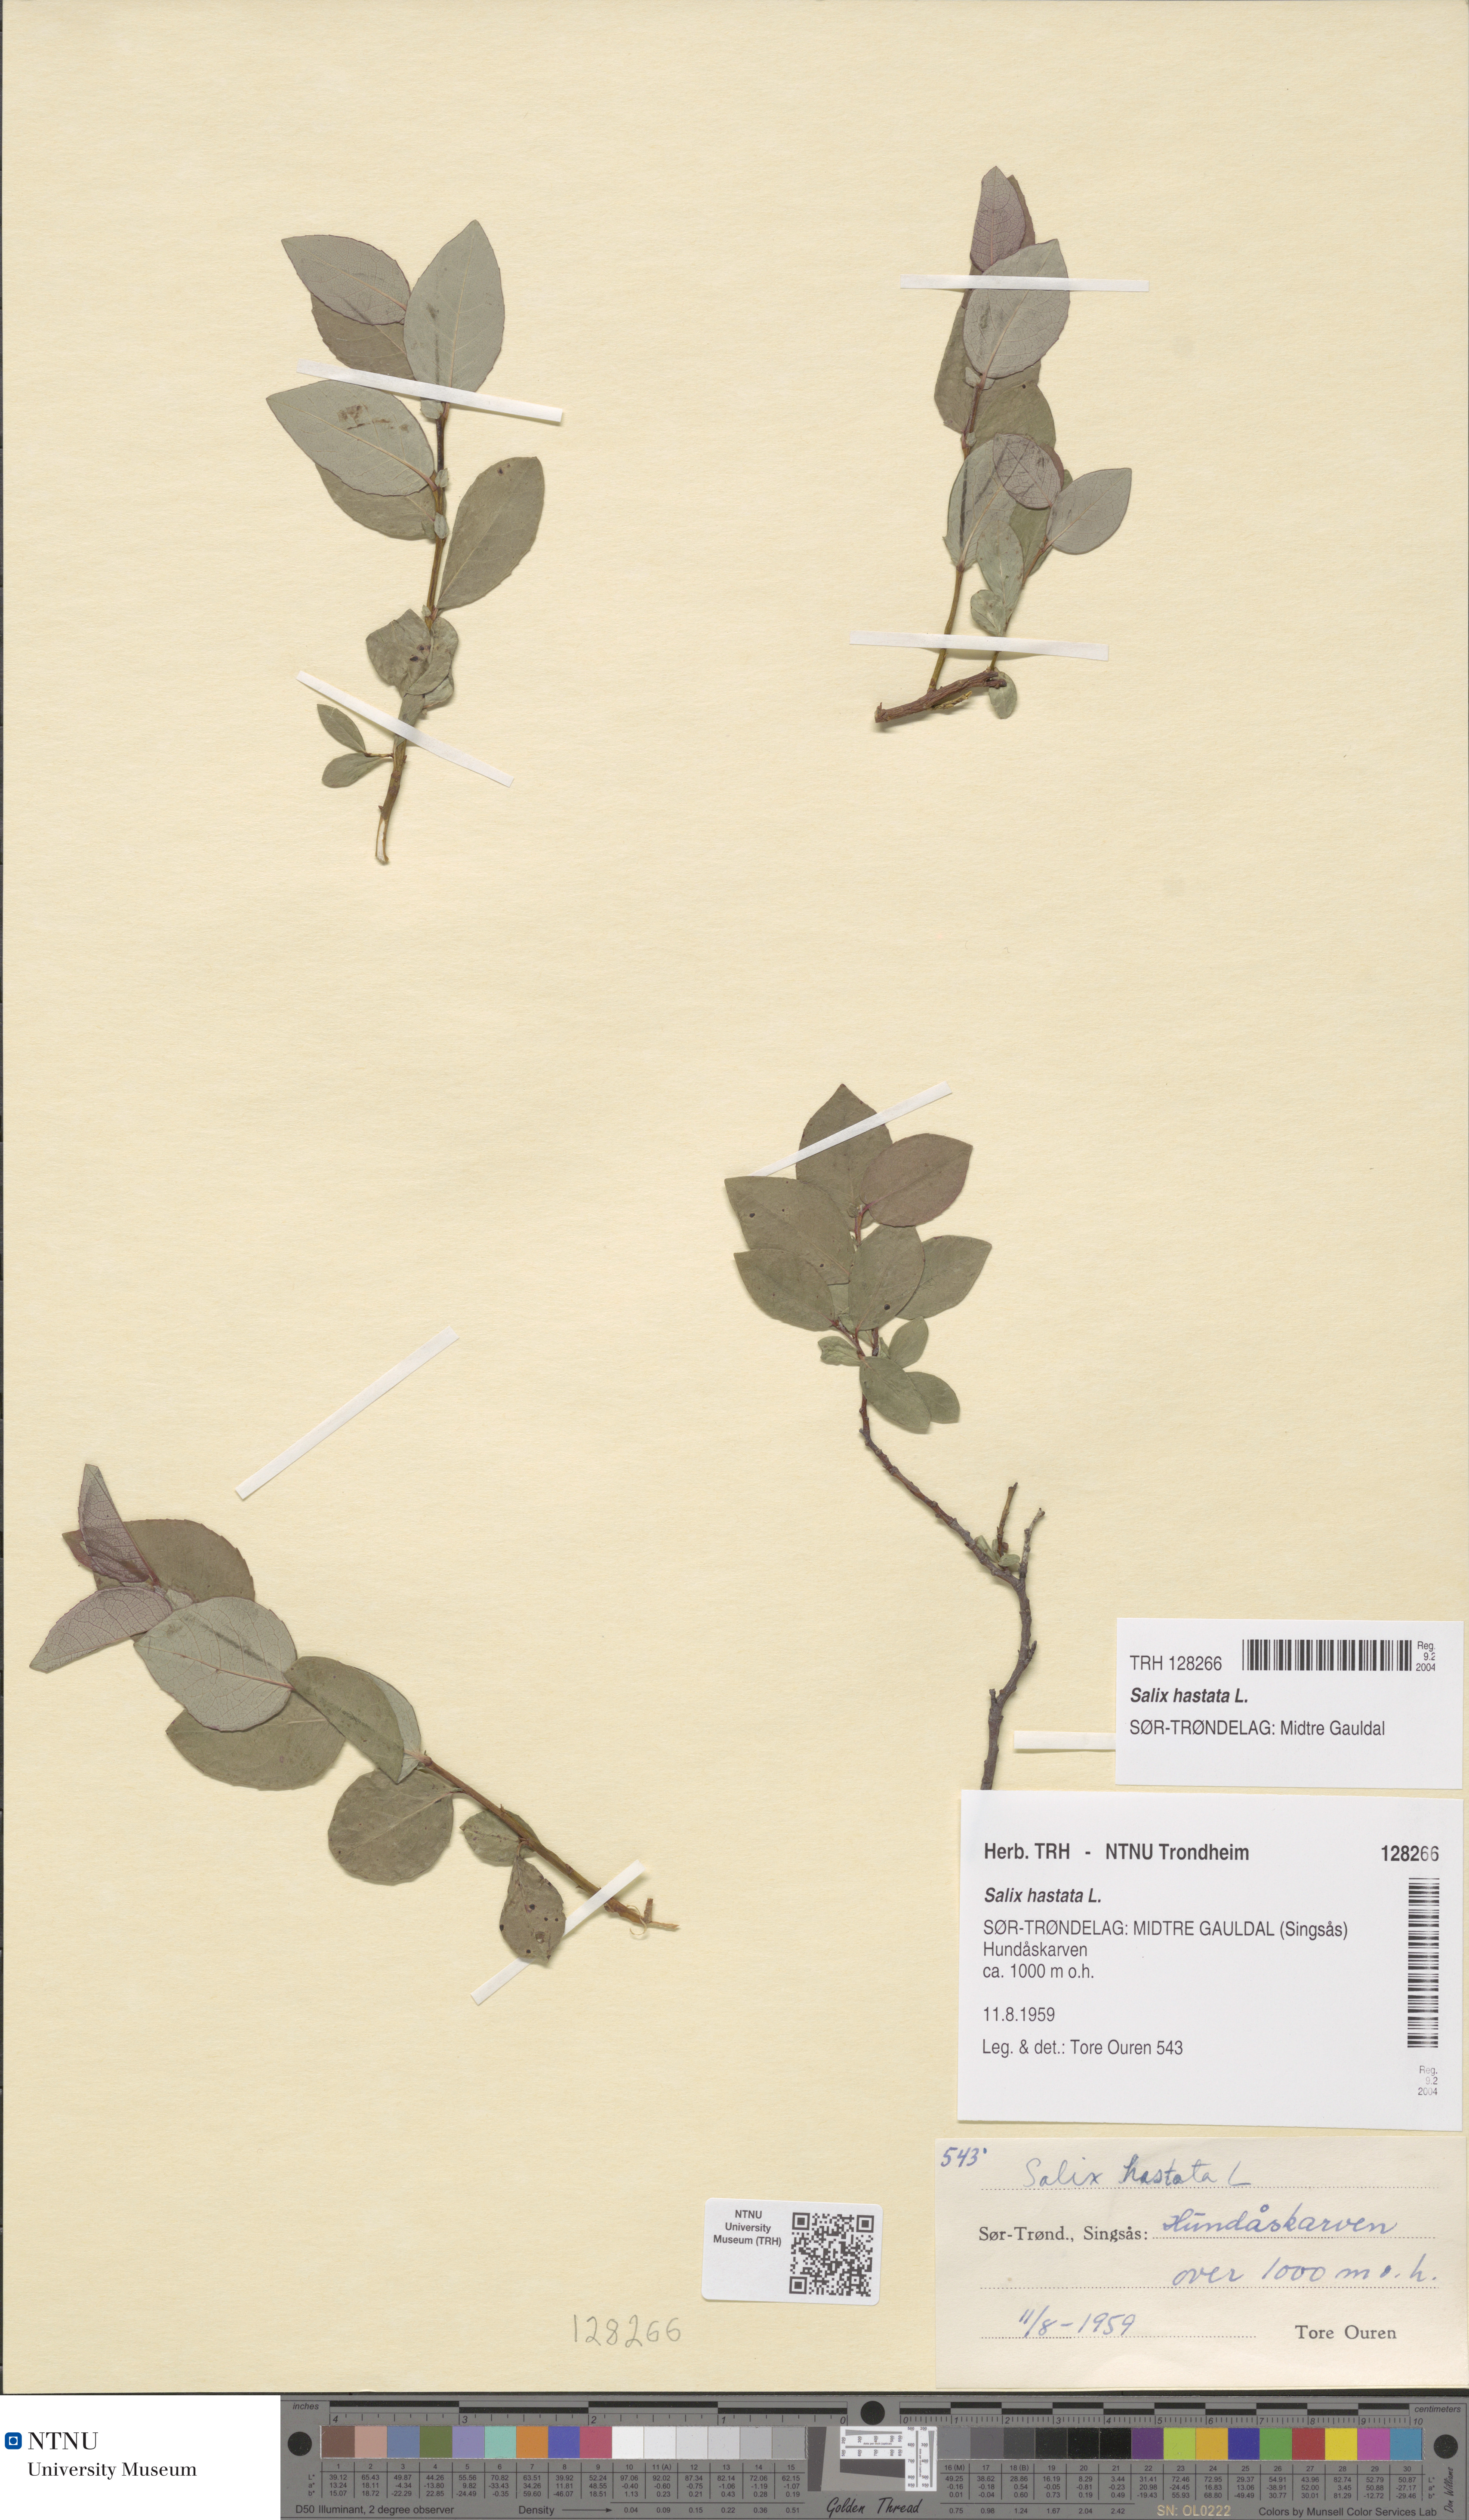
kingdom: Plantae
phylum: Tracheophyta
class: Magnoliopsida
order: Malpighiales
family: Salicaceae
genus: Salix
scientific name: Salix hastata
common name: Halberd willow
